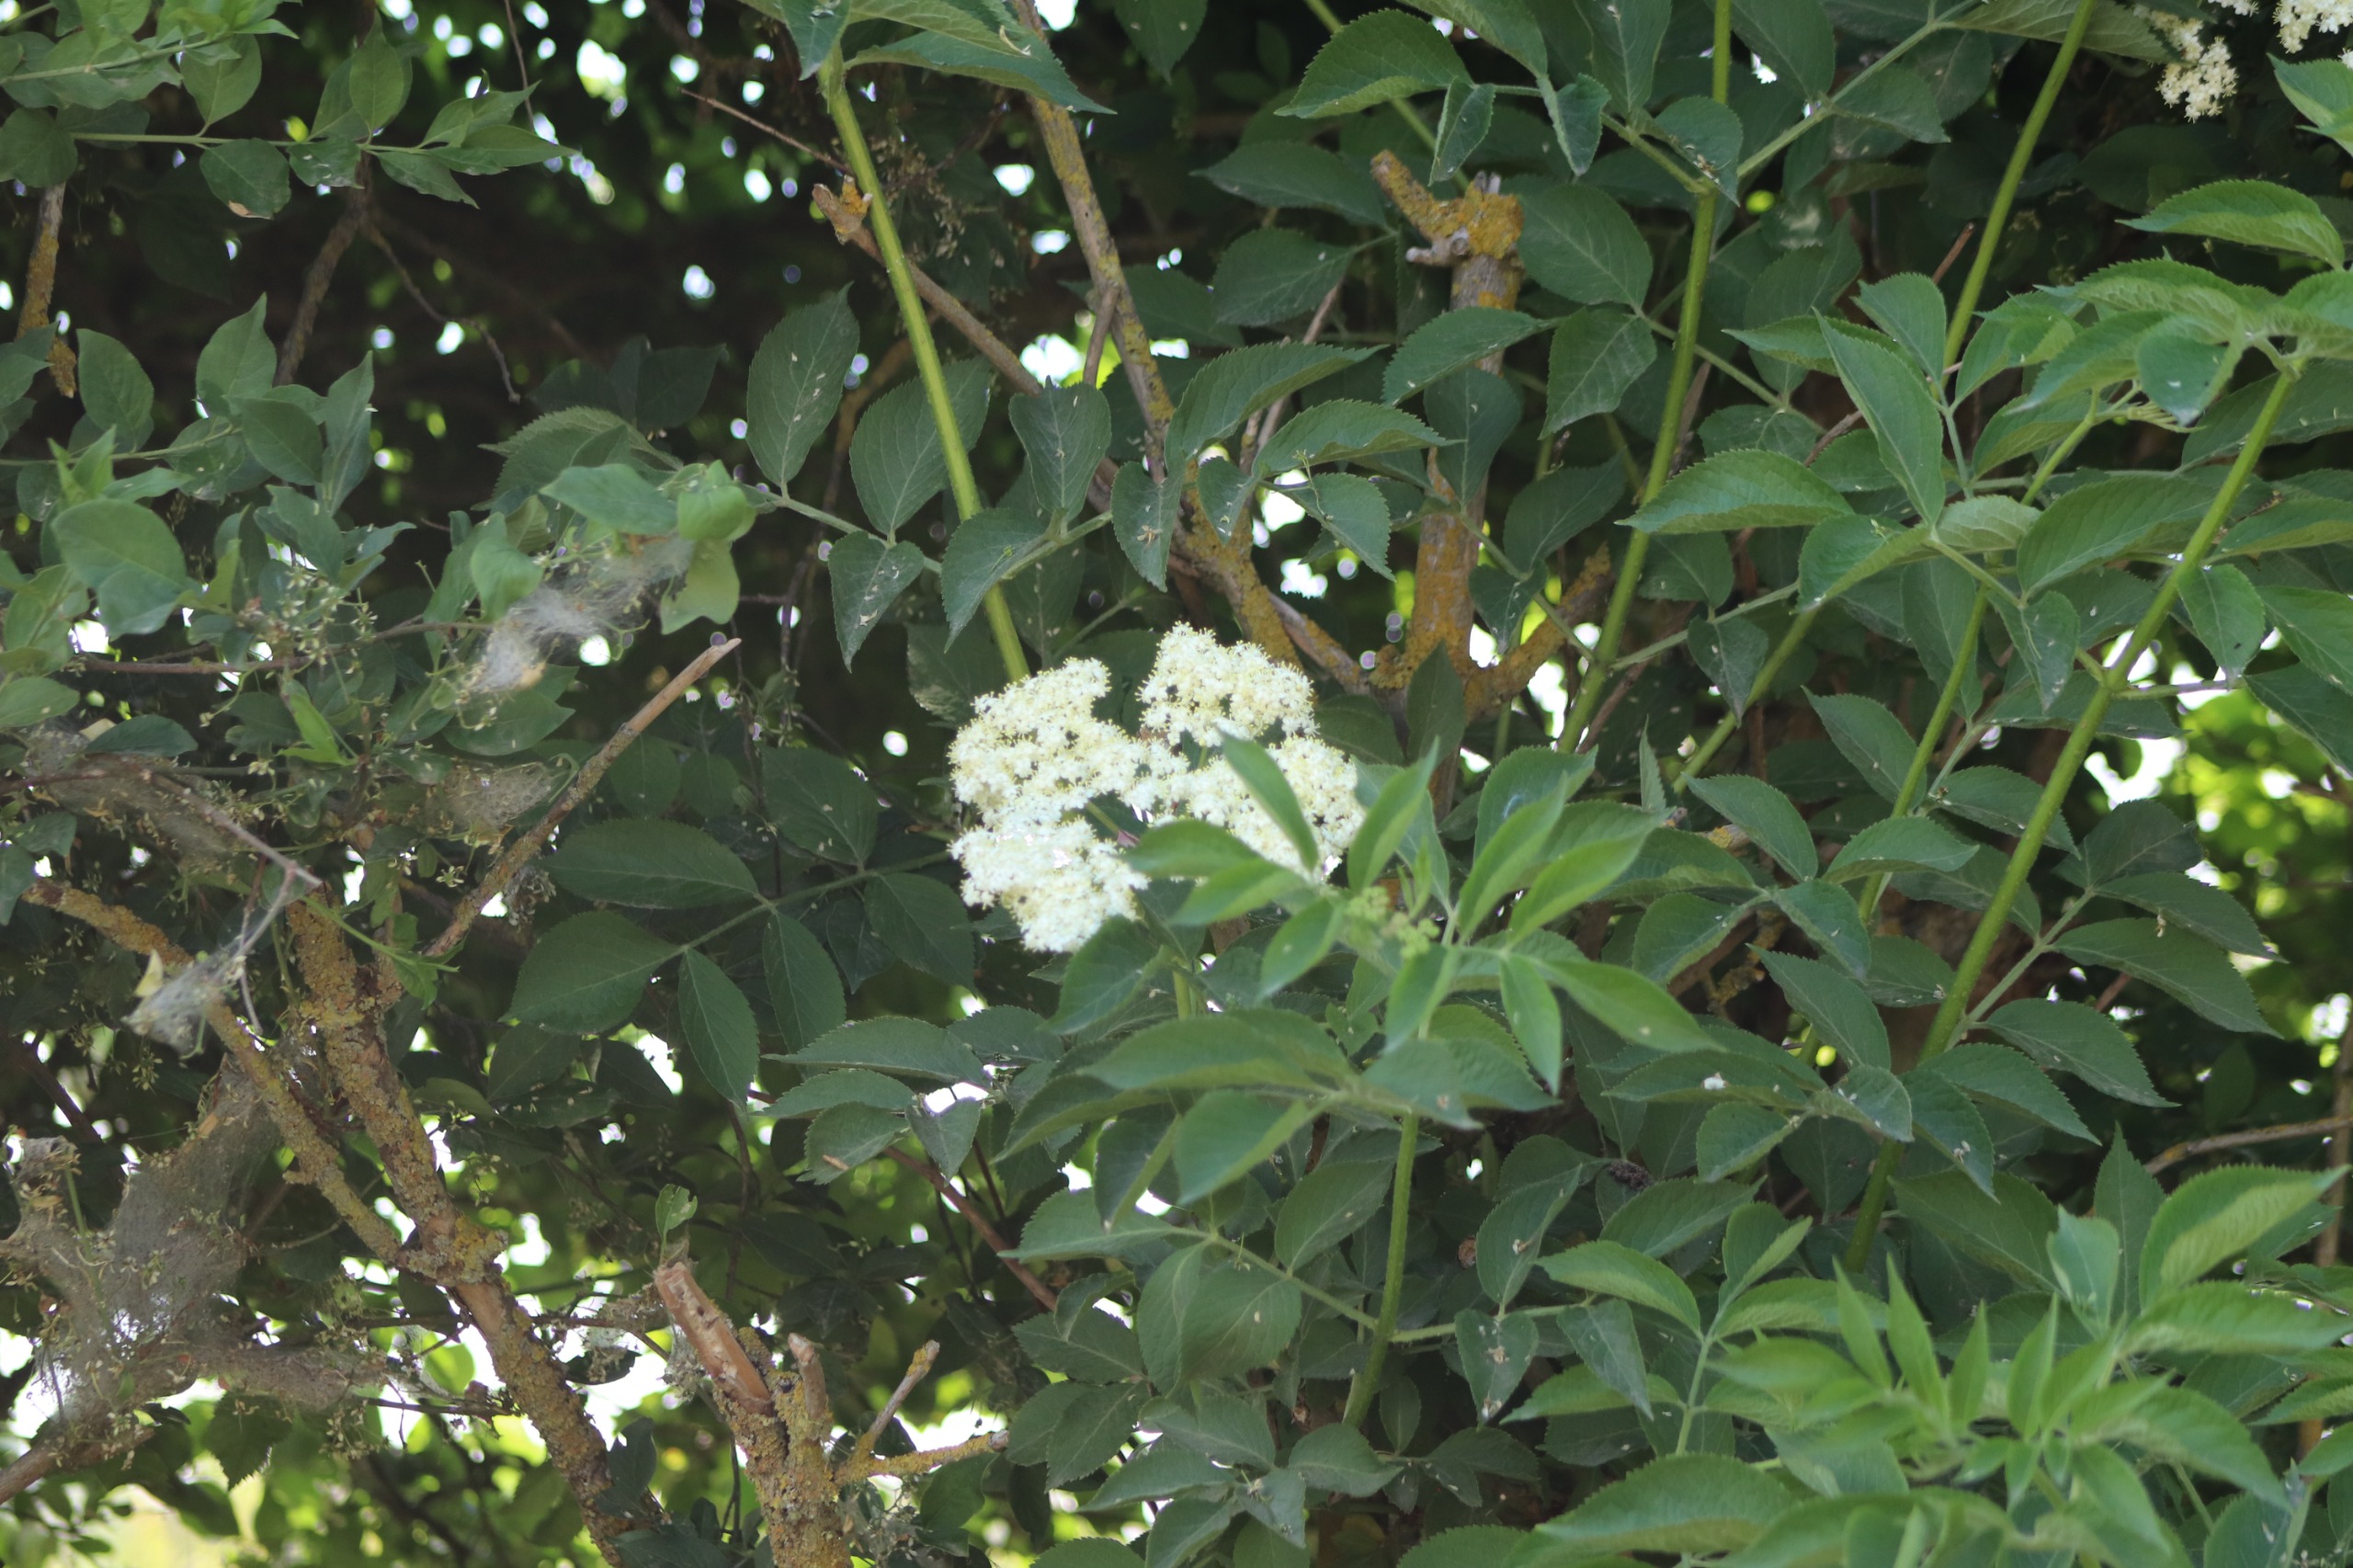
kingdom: Plantae
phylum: Tracheophyta
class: Magnoliopsida
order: Dipsacales
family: Viburnaceae
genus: Sambucus
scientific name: Sambucus nigra
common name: Almindelig hyld
